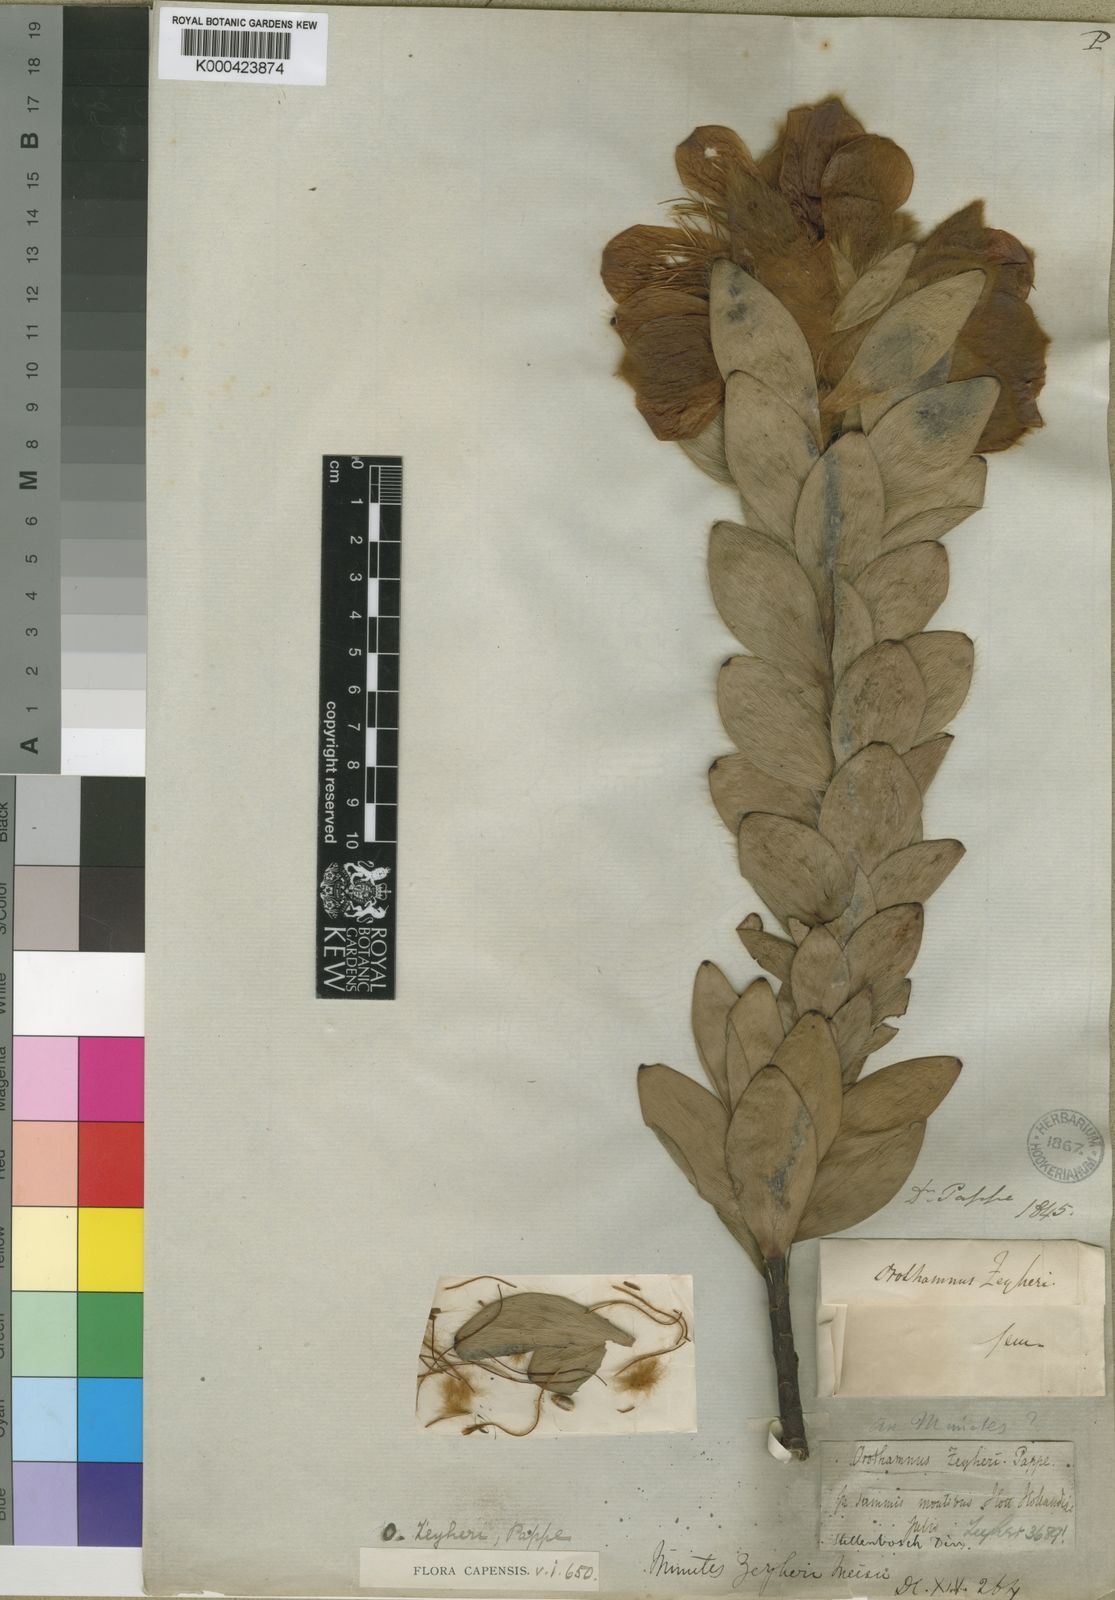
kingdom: Plantae
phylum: Tracheophyta
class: Magnoliopsida
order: Proteales
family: Proteaceae
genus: Orothamnus
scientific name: Orothamnus zeyheri
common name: Marsh rose
